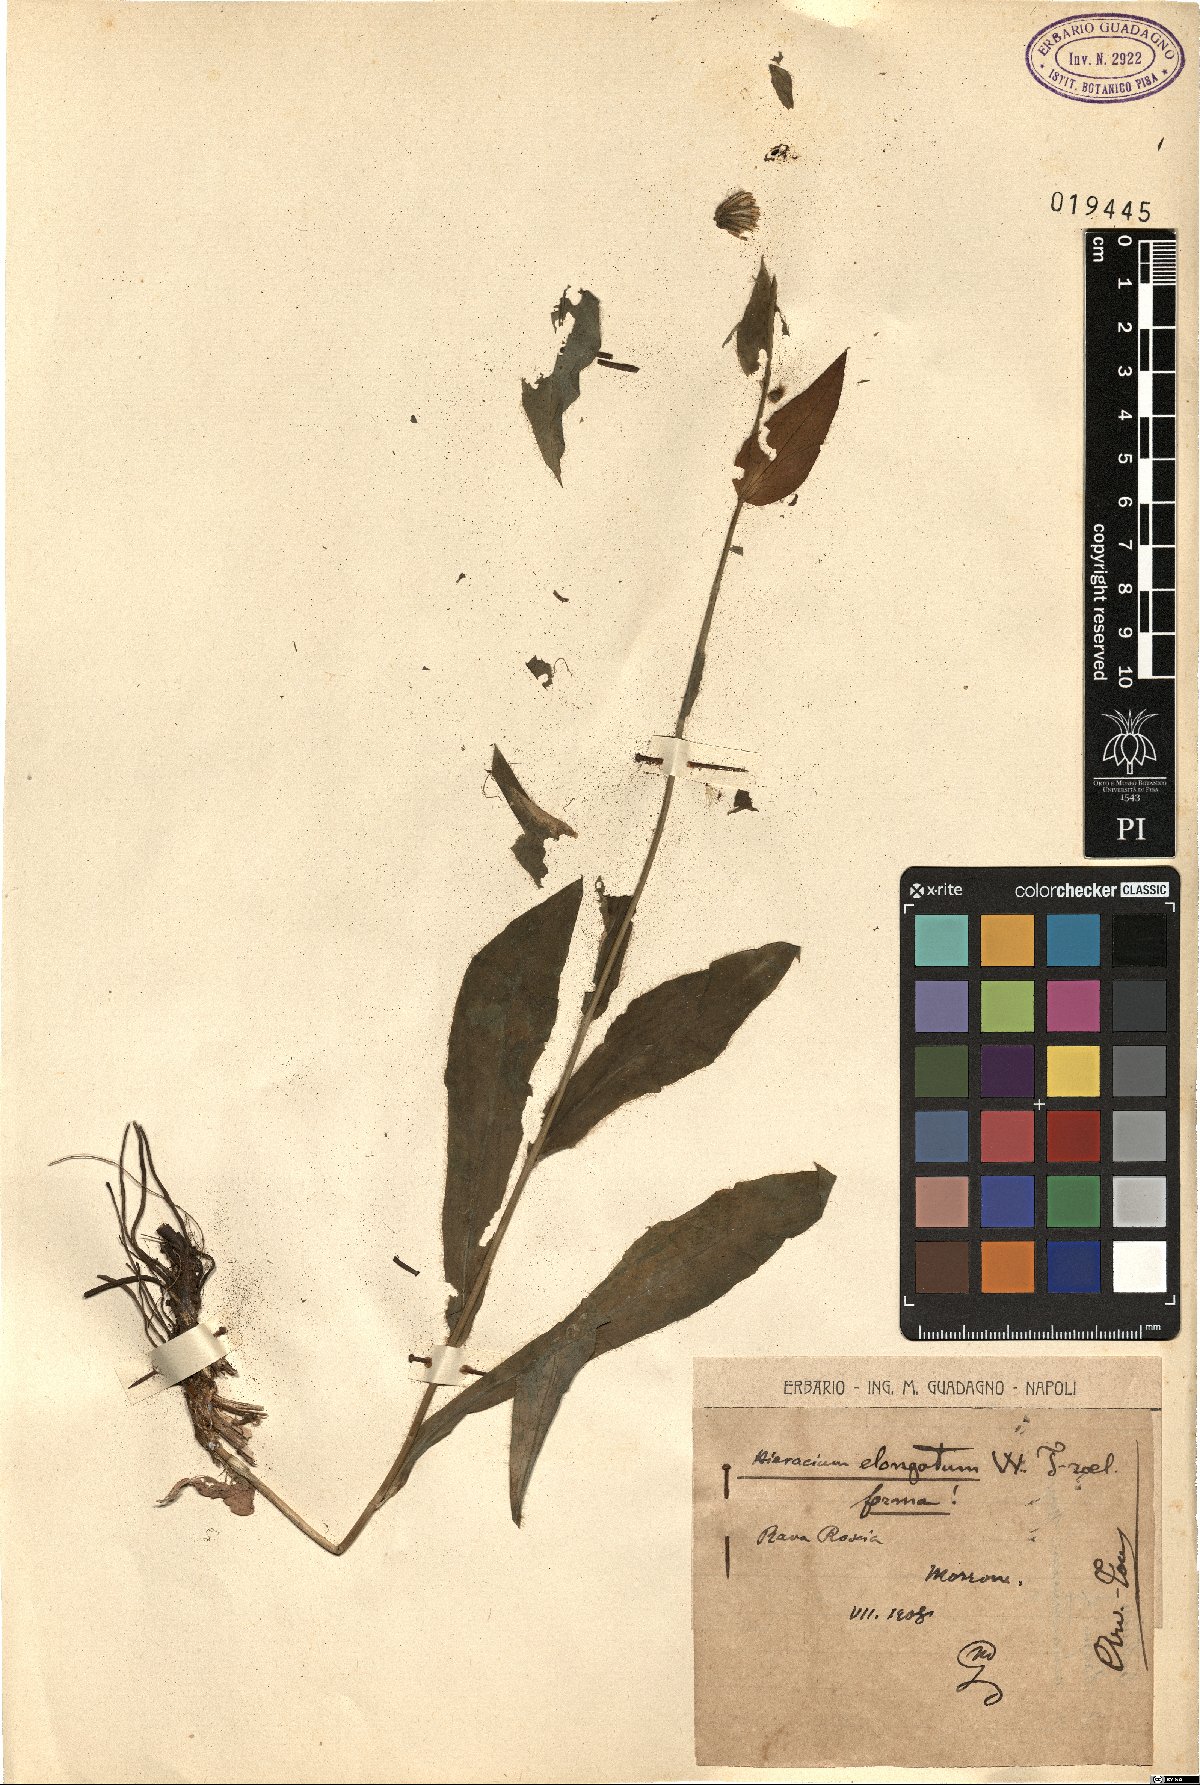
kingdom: Plantae
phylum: Tracheophyta
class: Magnoliopsida
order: Asterales
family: Asteraceae
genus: Hieracium
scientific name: Hieracium valdepilosum
